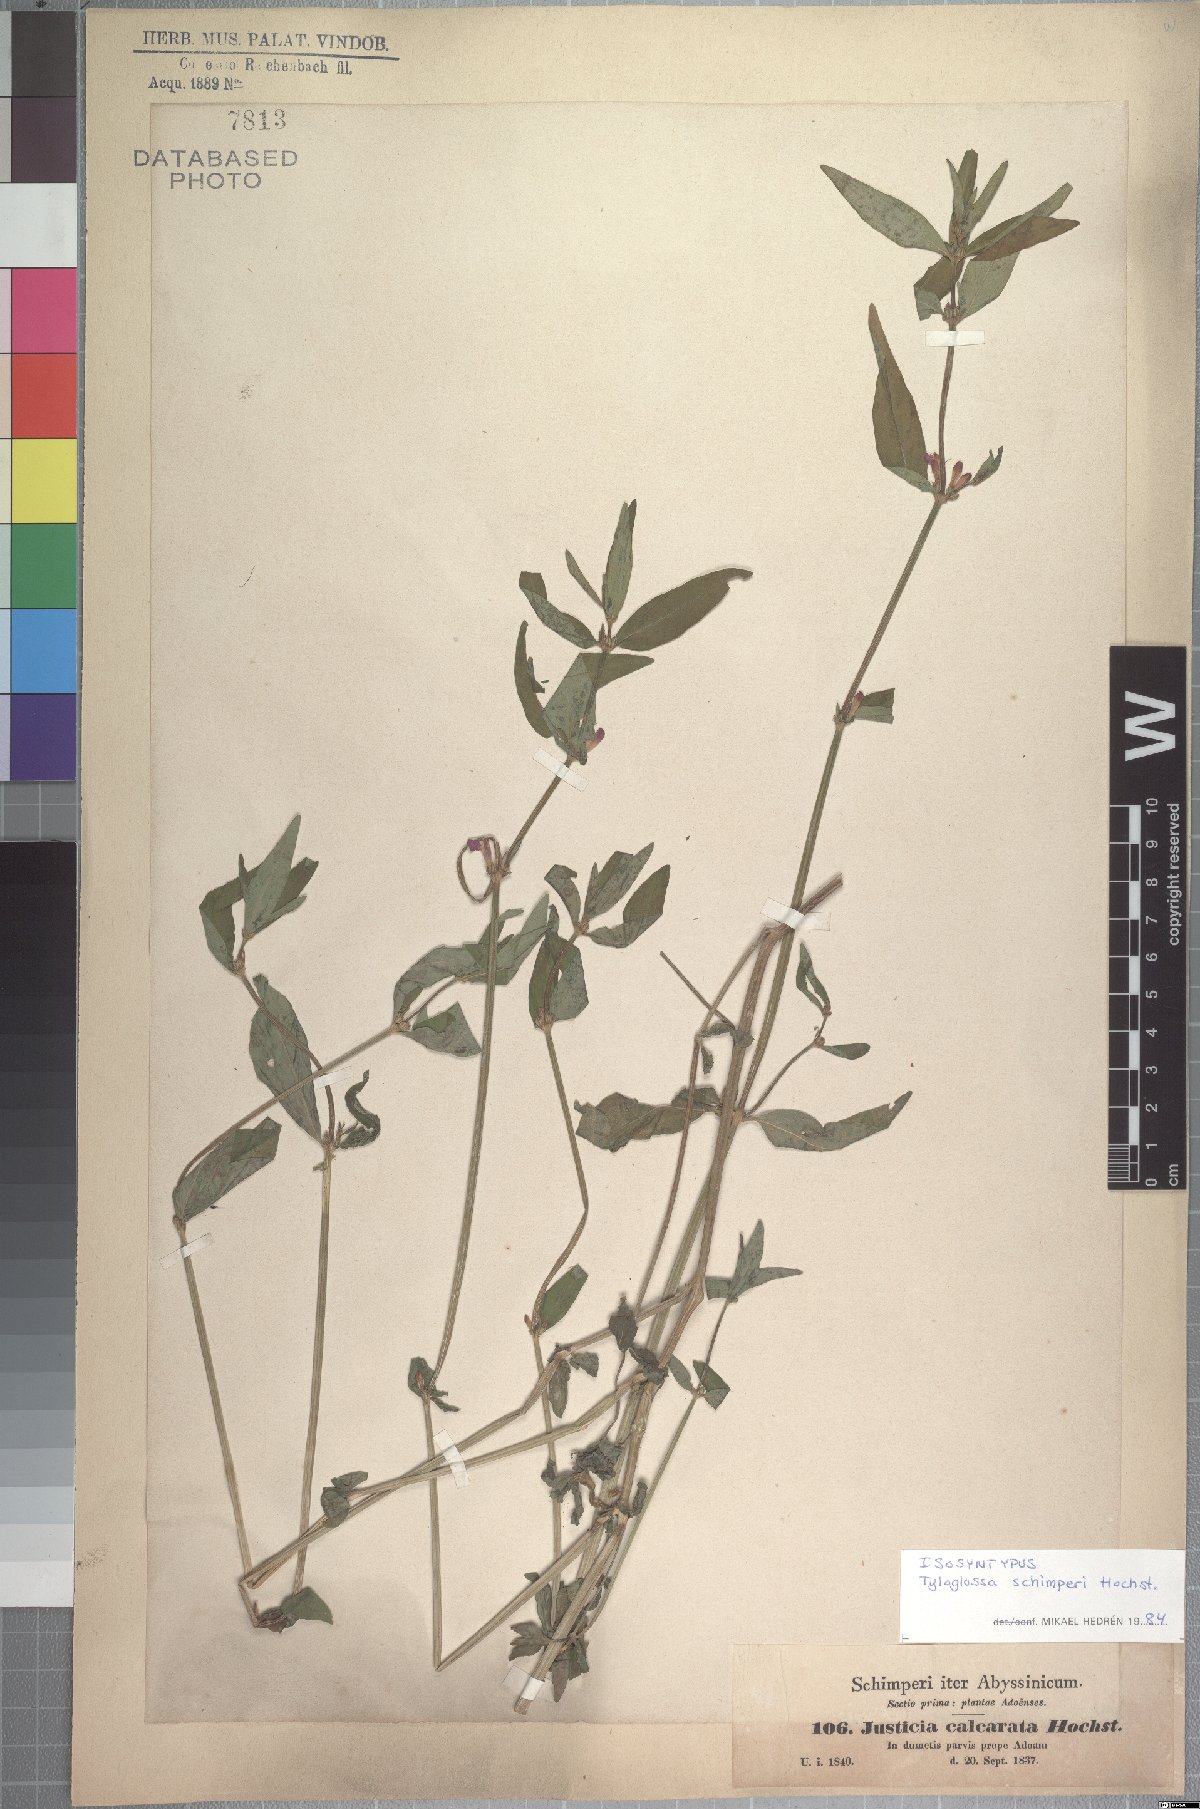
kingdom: Plantae
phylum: Tracheophyta
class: Magnoliopsida
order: Lamiales
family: Acanthaceae
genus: Justicia
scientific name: Justicia ladanoides
